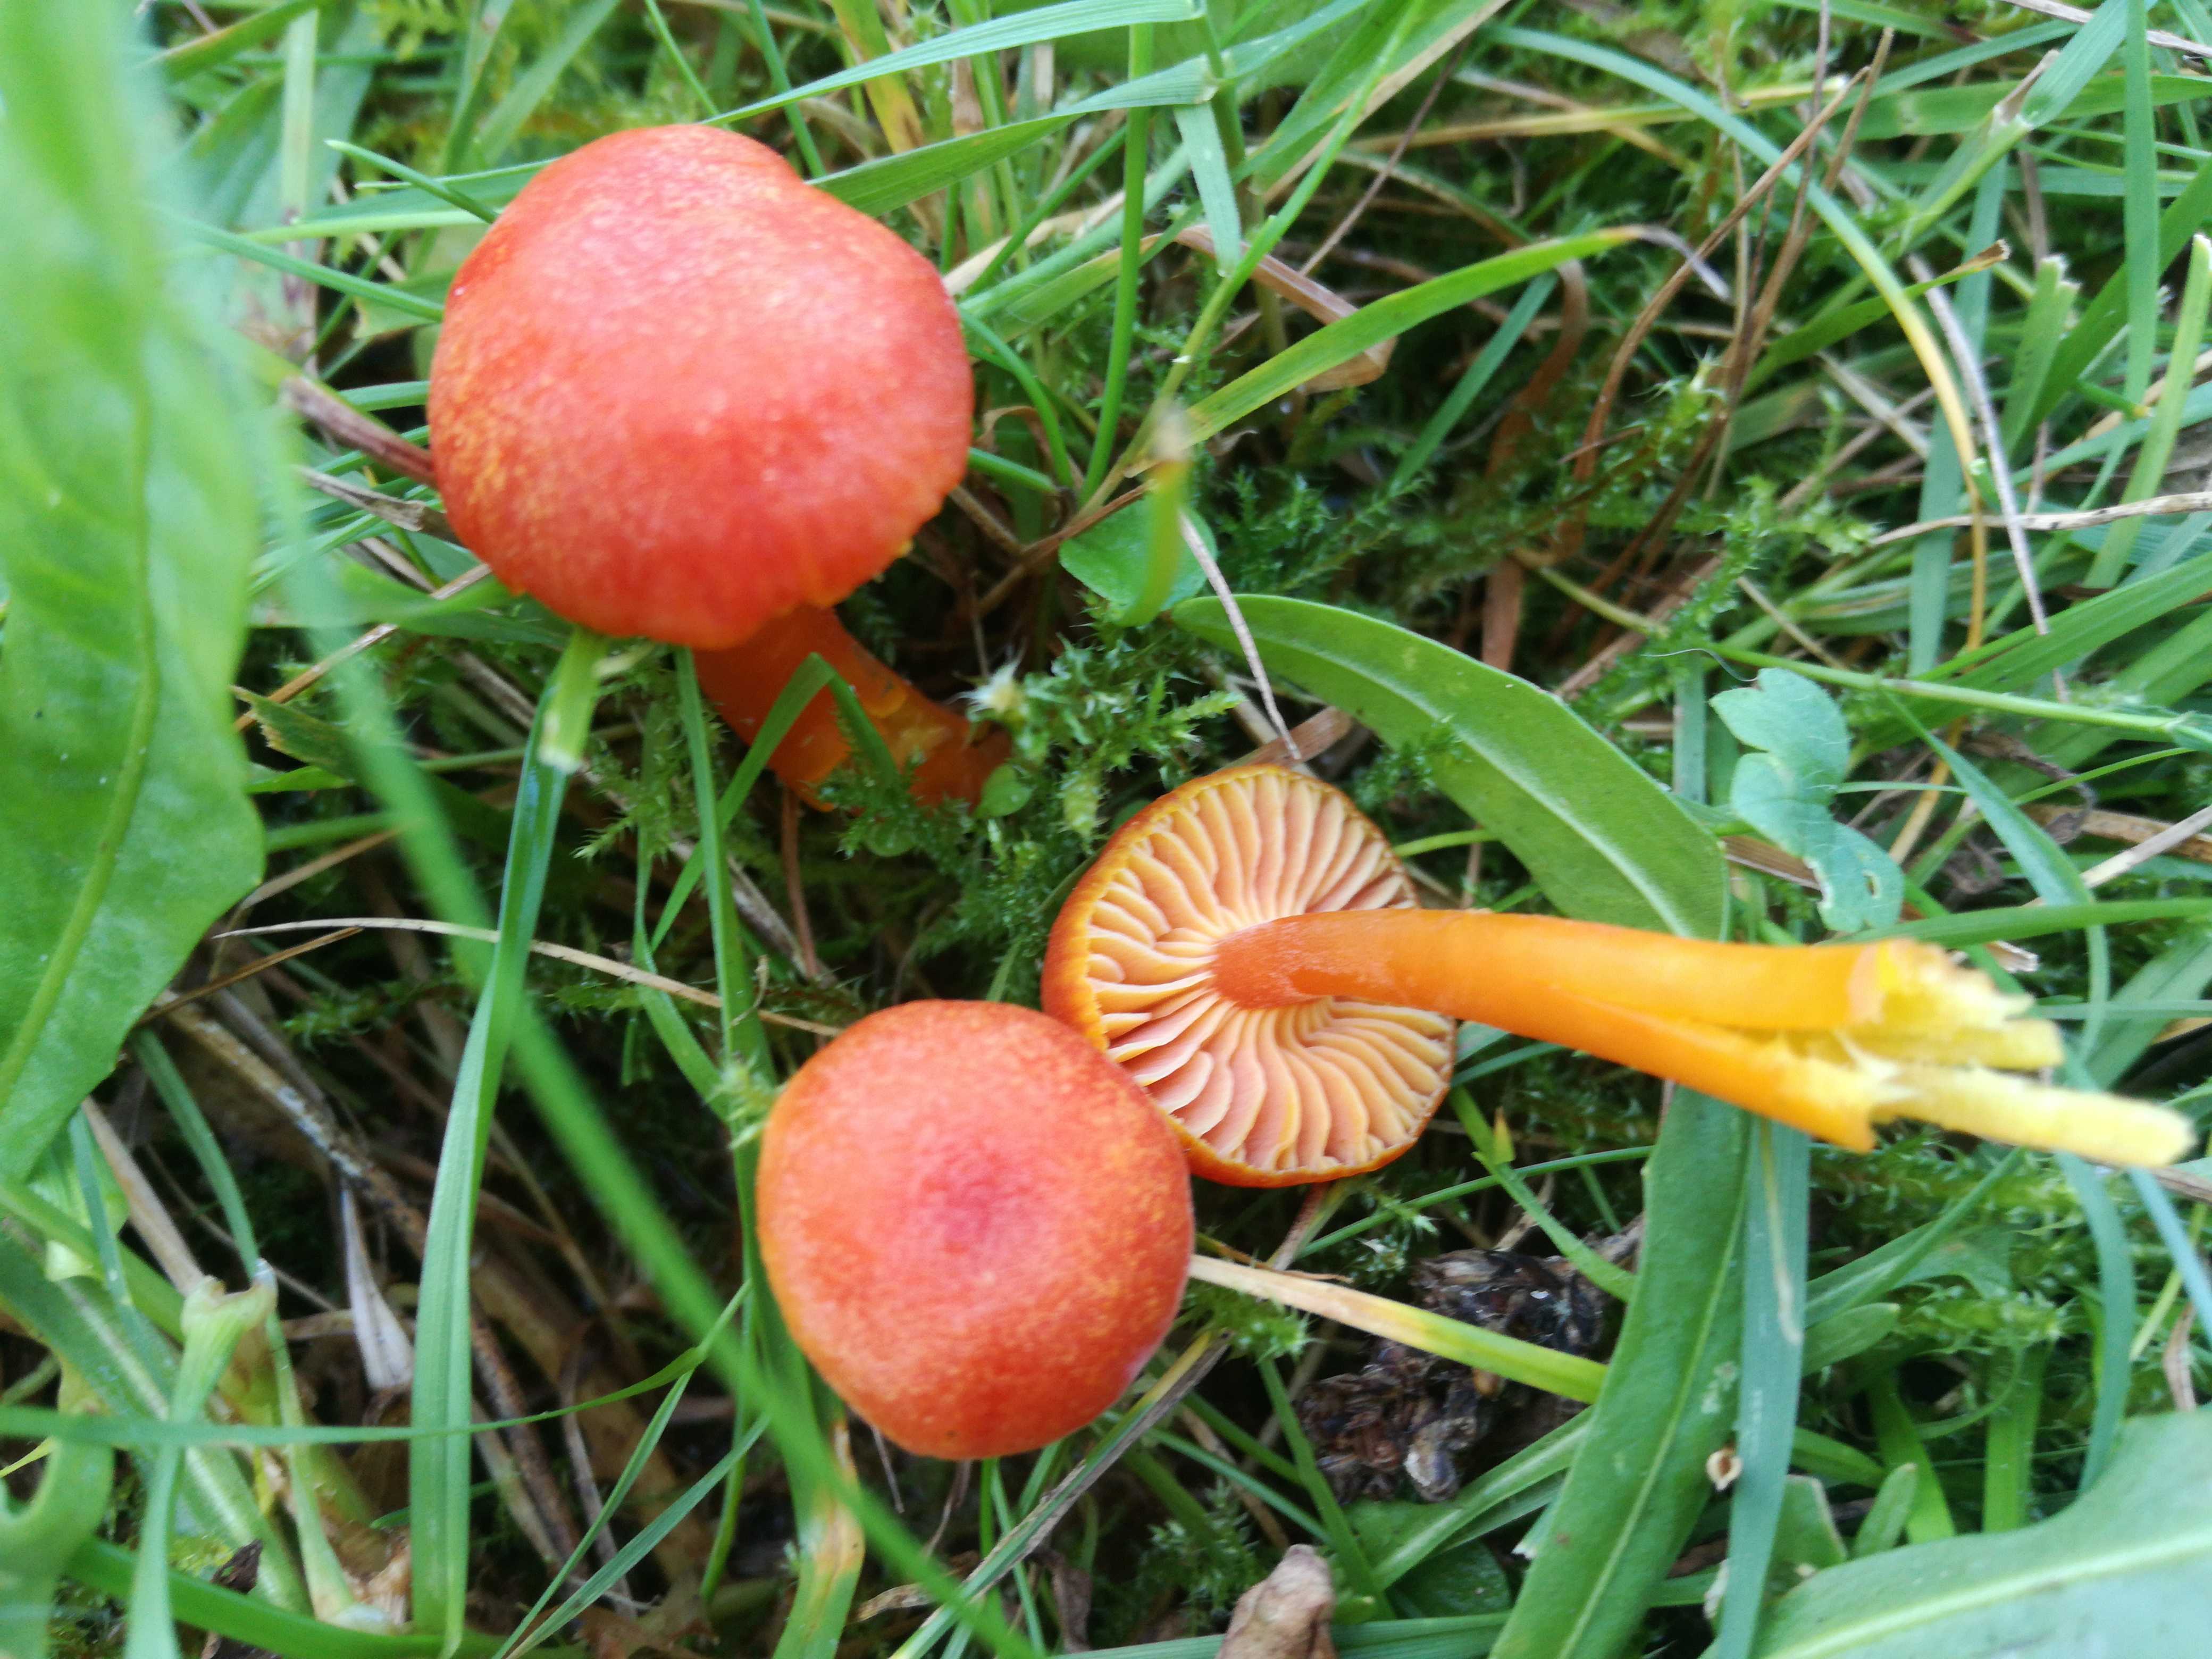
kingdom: Fungi
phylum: Basidiomycota
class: Agaricomycetes
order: Agaricales
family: Hygrophoraceae
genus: Hygrocybe
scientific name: Hygrocybe miniata
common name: mønje-vokshat
